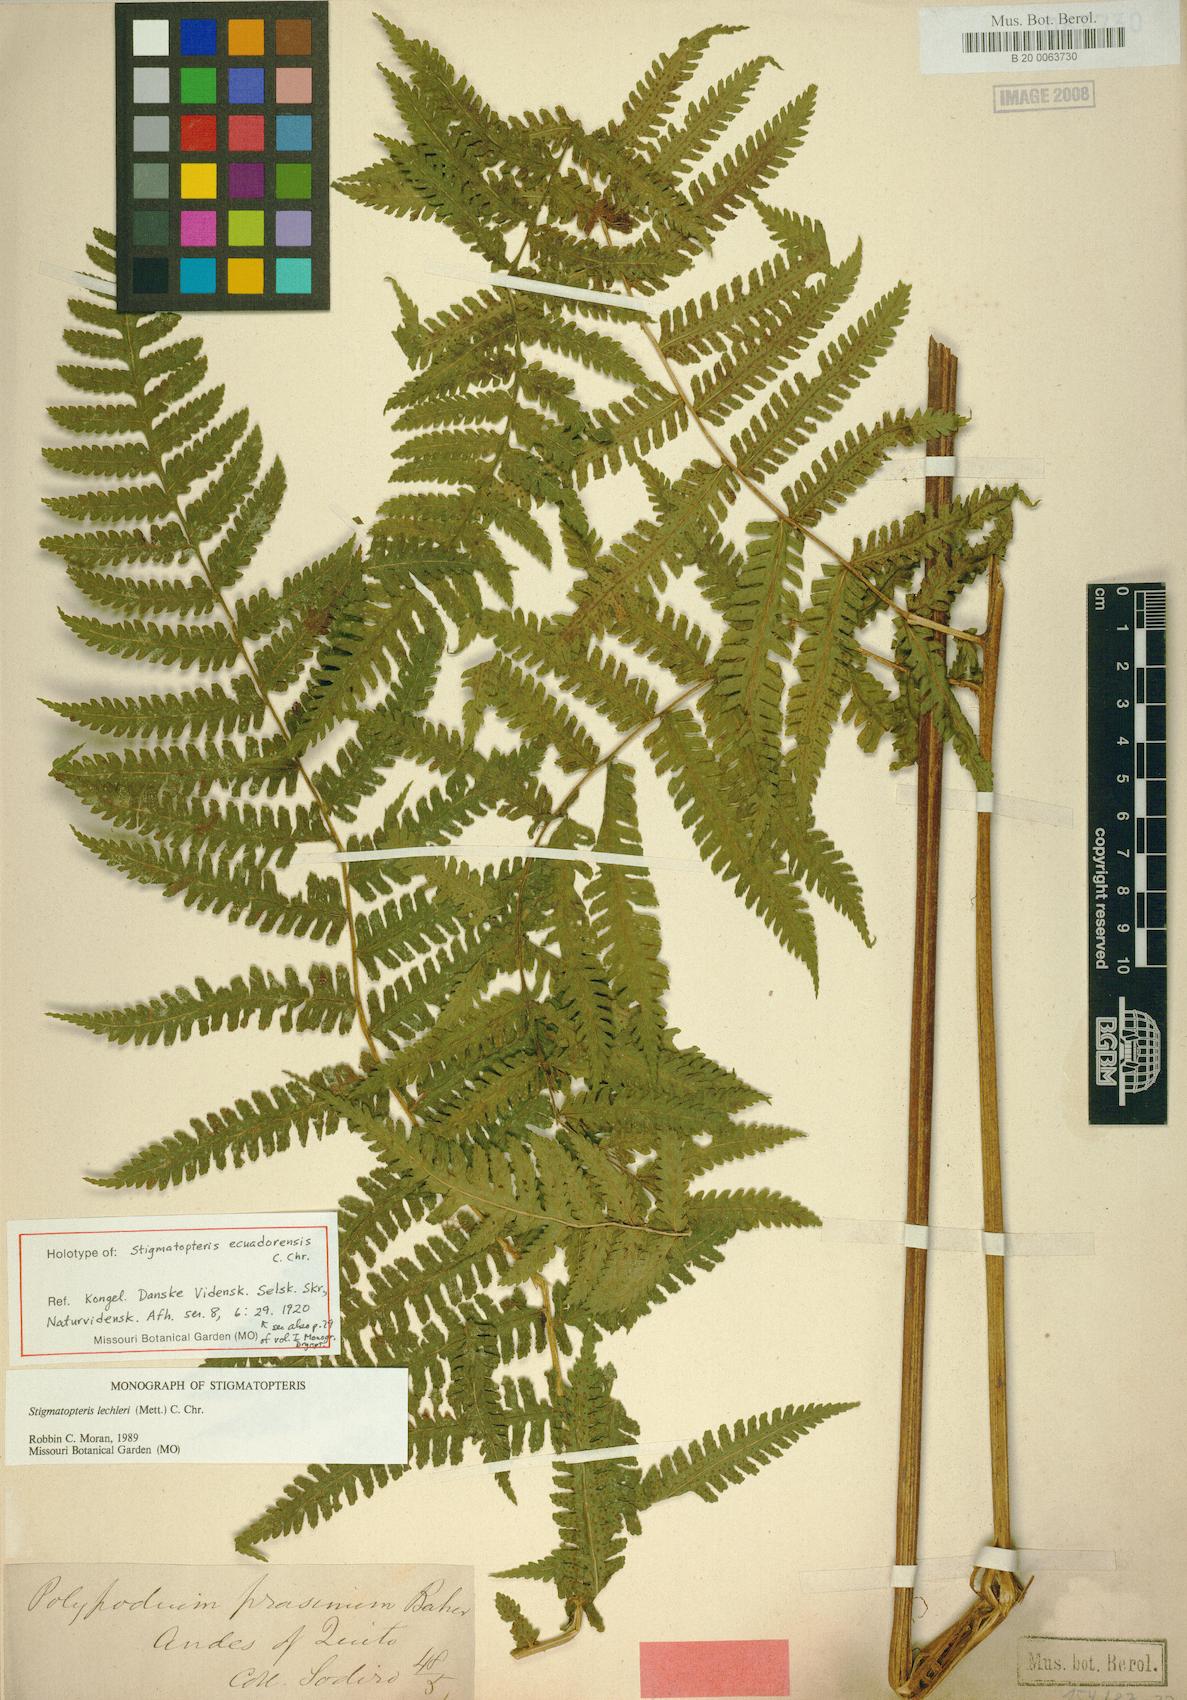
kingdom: Plantae
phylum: Tracheophyta
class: Polypodiopsida
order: Polypodiales
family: Dryopteridaceae
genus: Stigmatopteris
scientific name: Stigmatopteris lechleri
